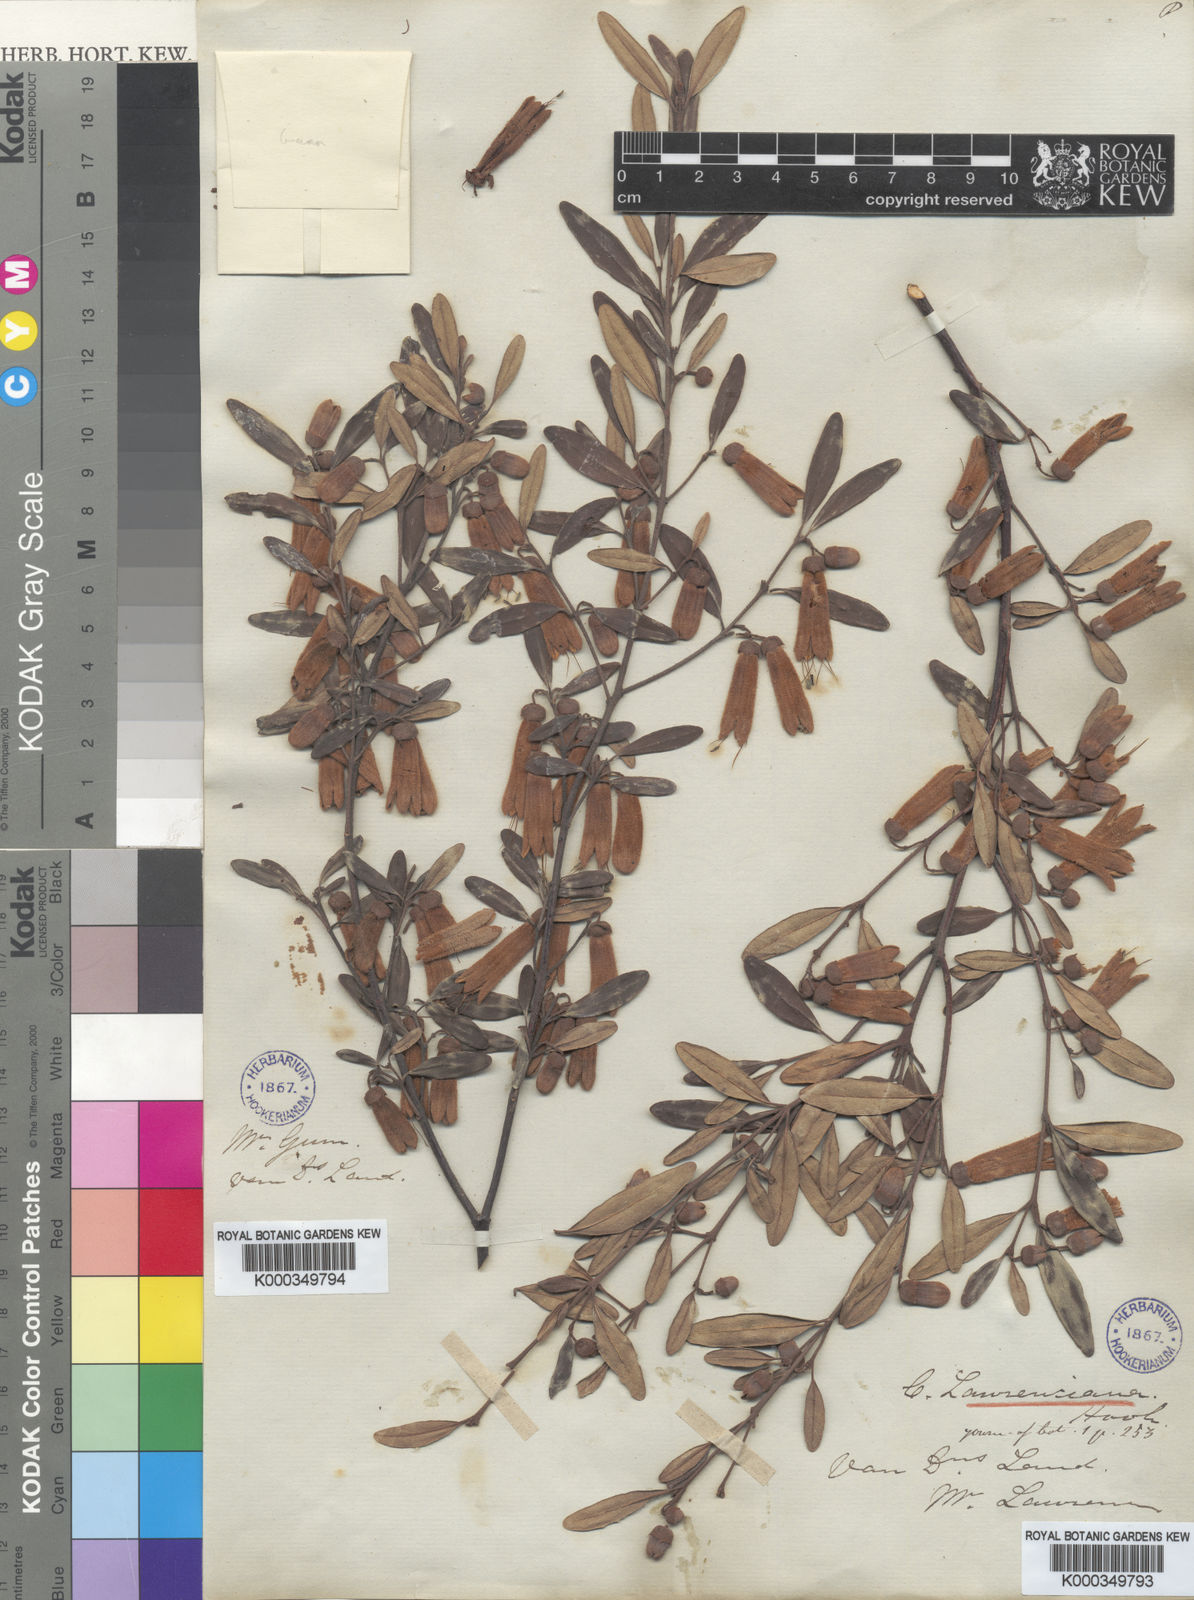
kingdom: Plantae
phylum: Tracheophyta
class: Magnoliopsida
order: Sapindales
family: Rutaceae
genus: Correa
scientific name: Correa
